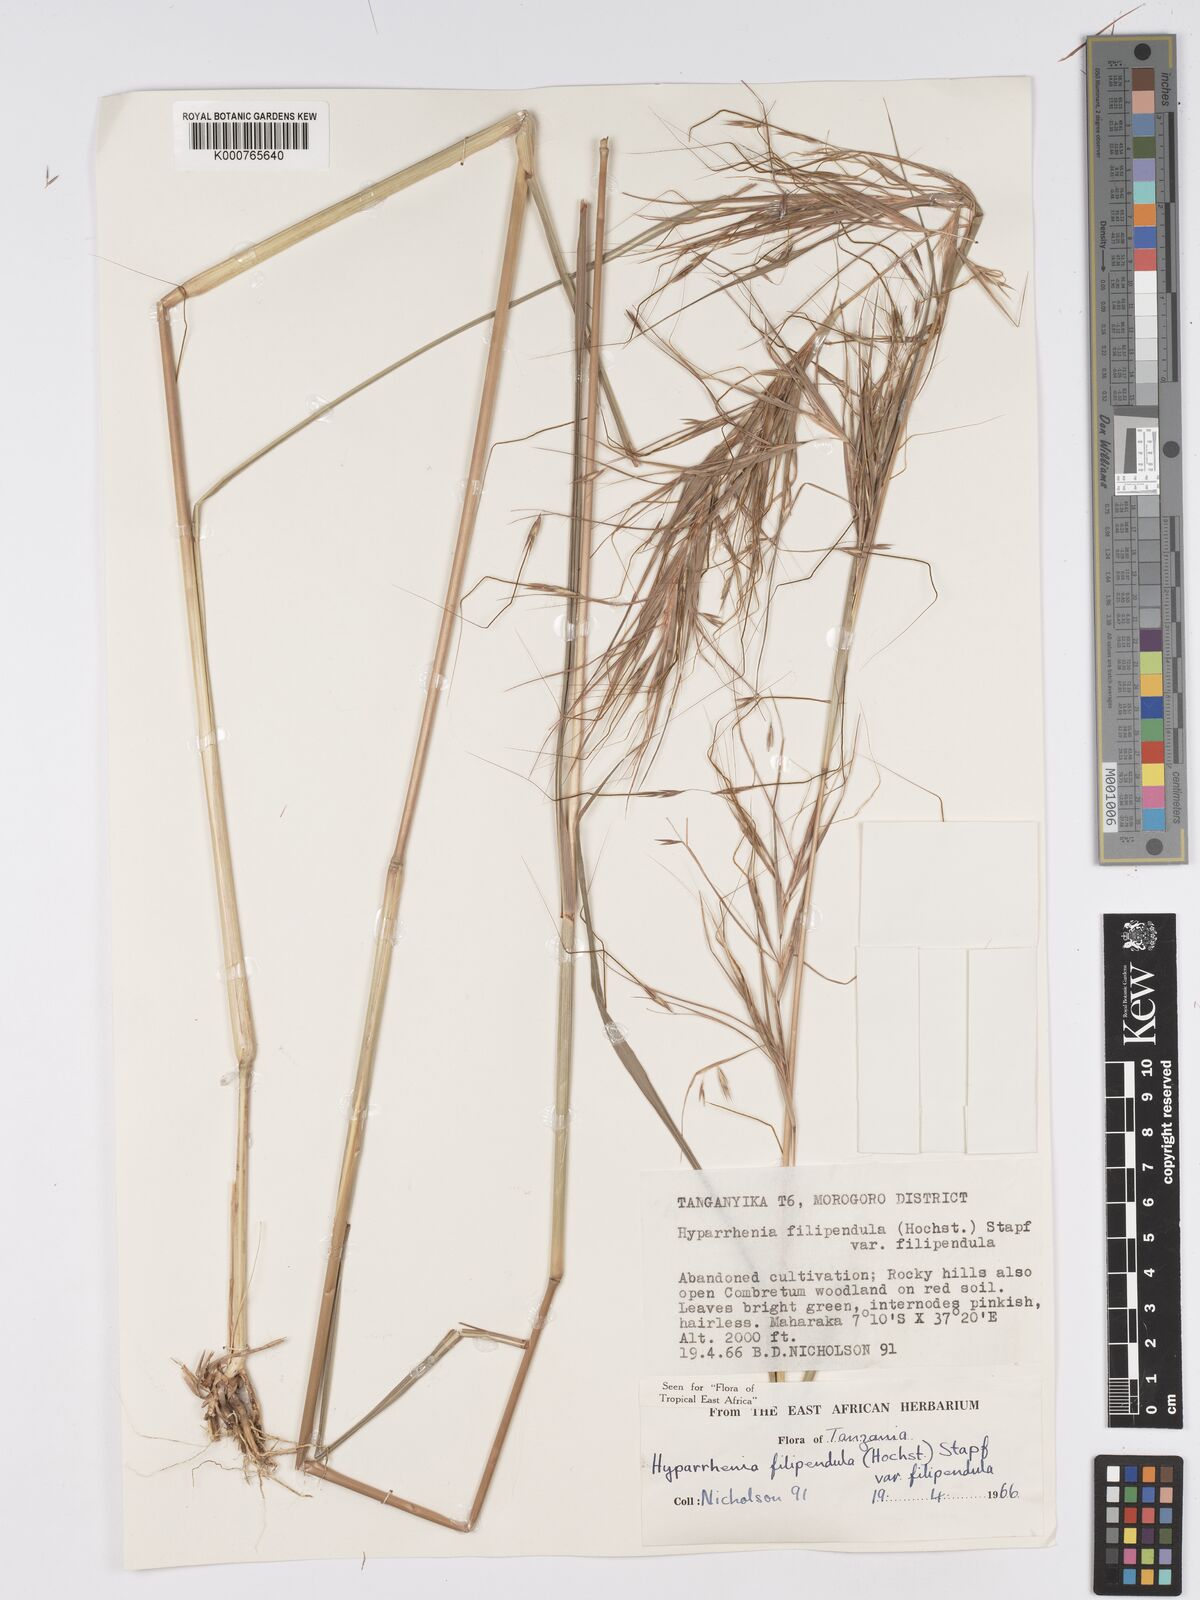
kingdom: Plantae
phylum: Tracheophyta
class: Liliopsida
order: Poales
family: Poaceae
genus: Hyparrhenia
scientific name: Hyparrhenia filipendula
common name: Tambookie grass
